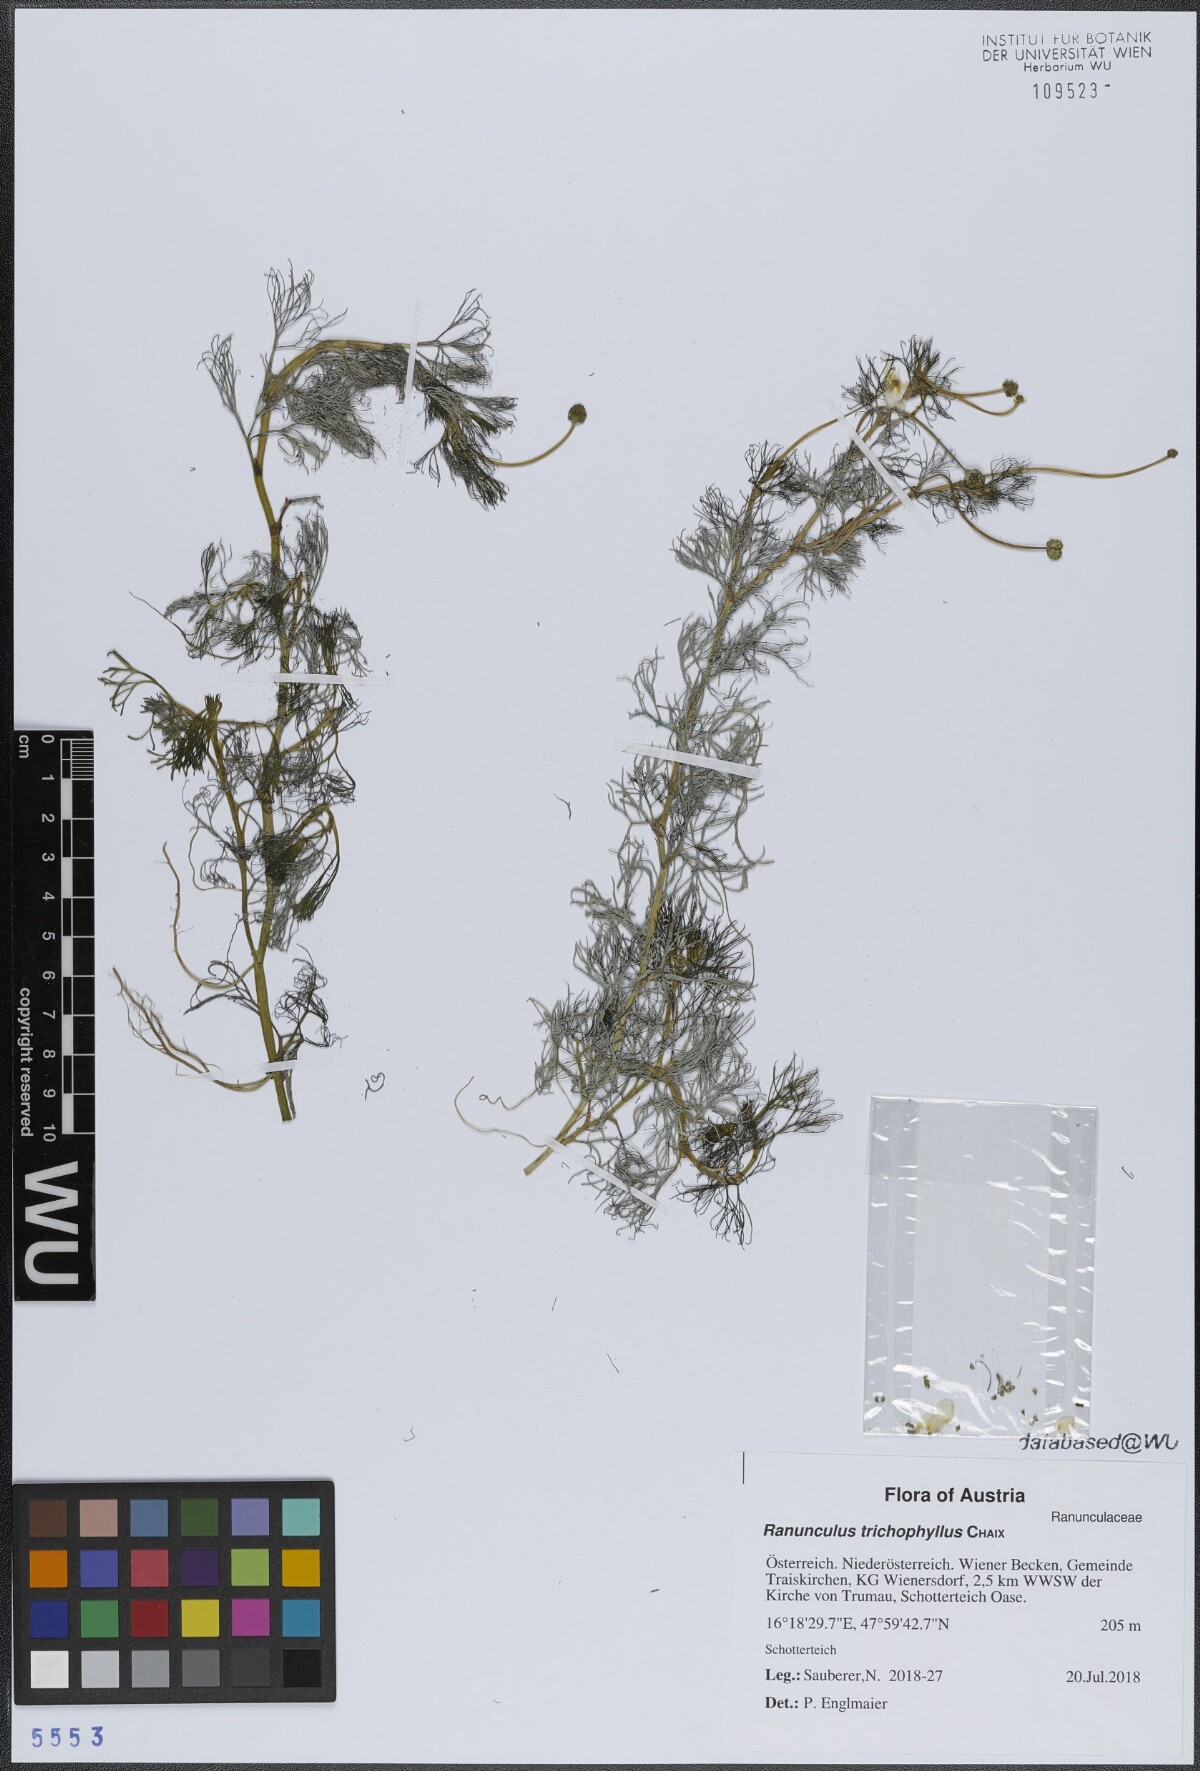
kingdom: Plantae
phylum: Tracheophyta
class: Magnoliopsida
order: Ranunculales
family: Ranunculaceae
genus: Ranunculus
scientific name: Ranunculus trichophyllus
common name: Thread-leaved water-crowfoot
